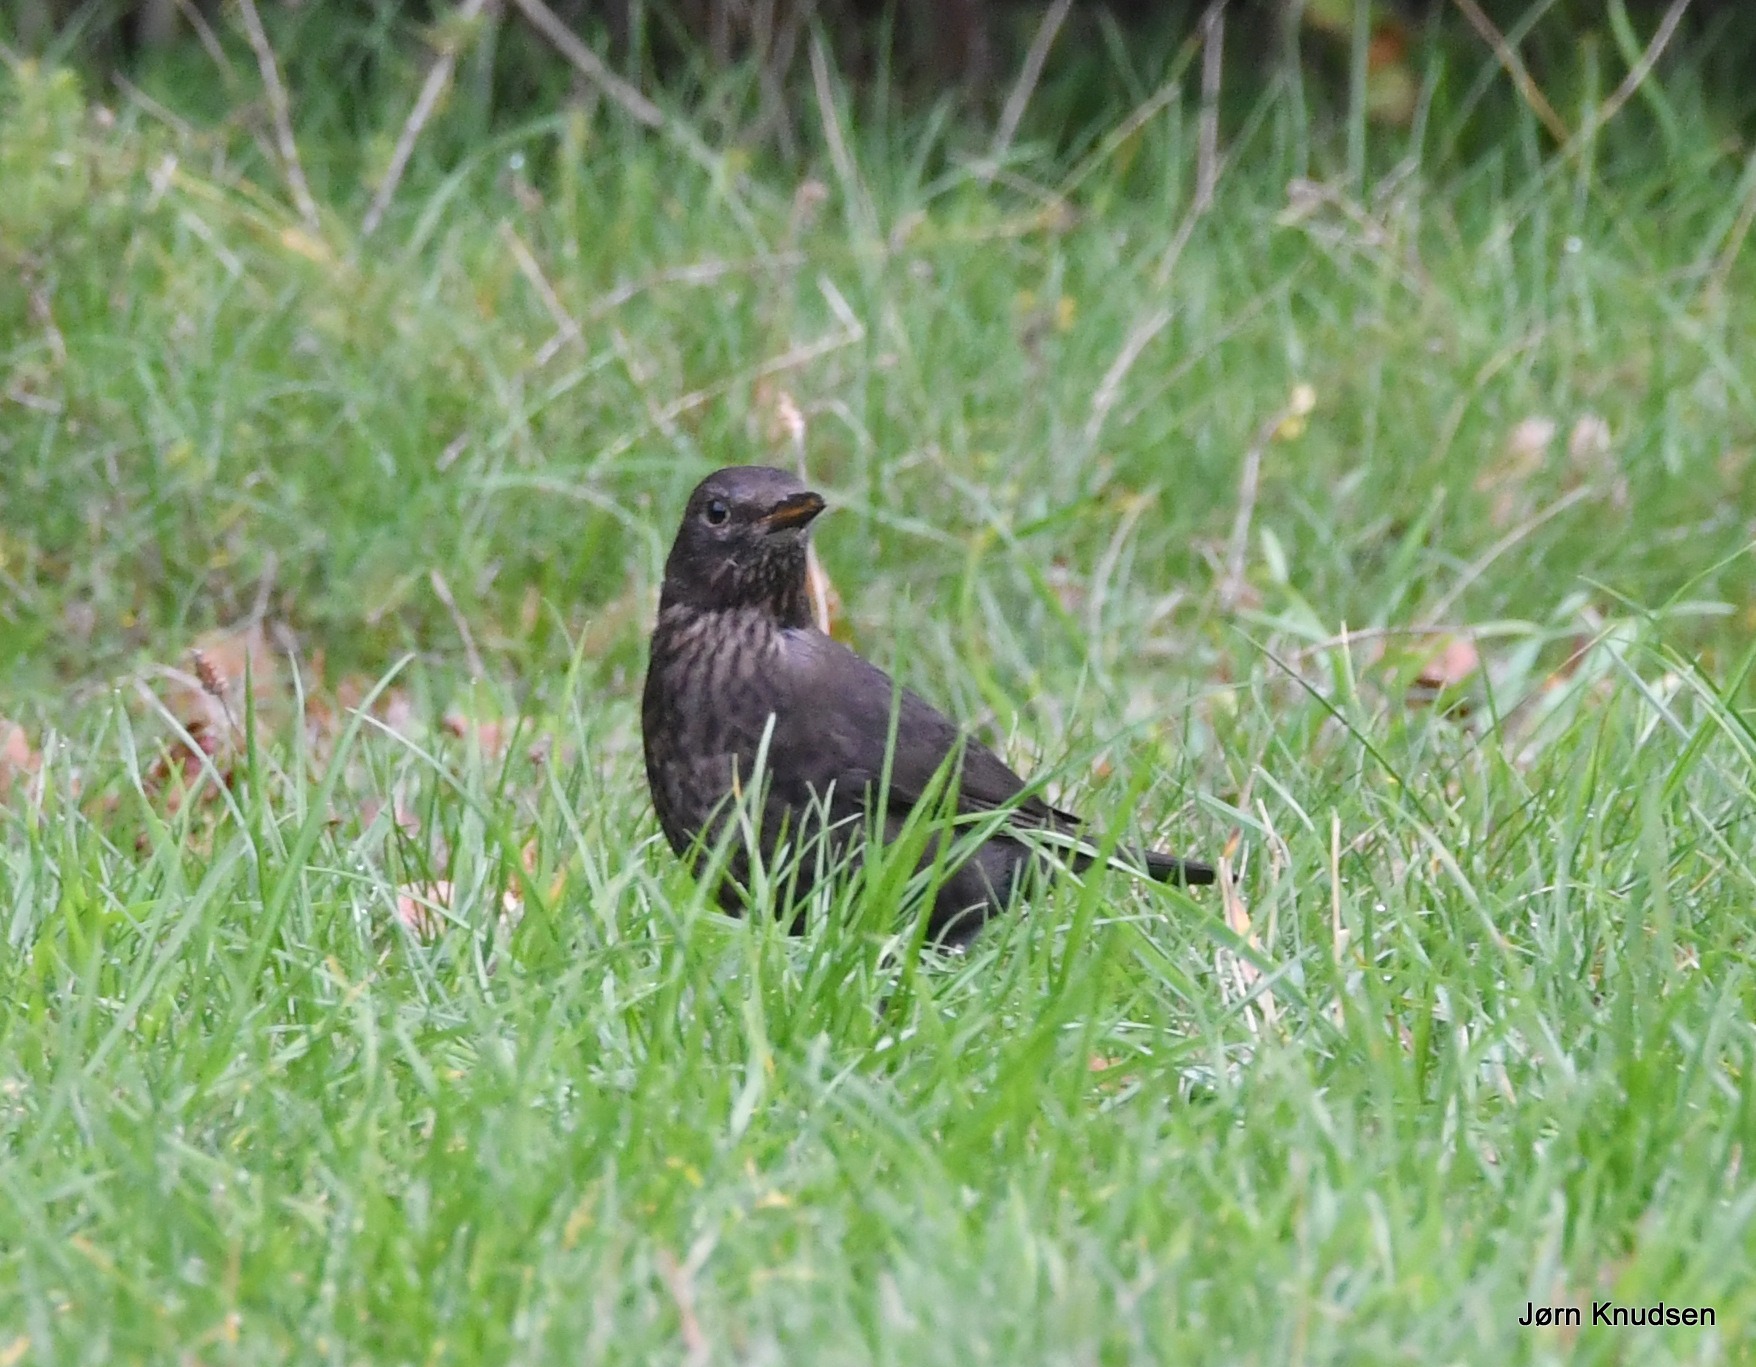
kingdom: Animalia
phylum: Chordata
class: Aves
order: Passeriformes
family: Turdidae
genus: Turdus
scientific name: Turdus merula
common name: Solsort
